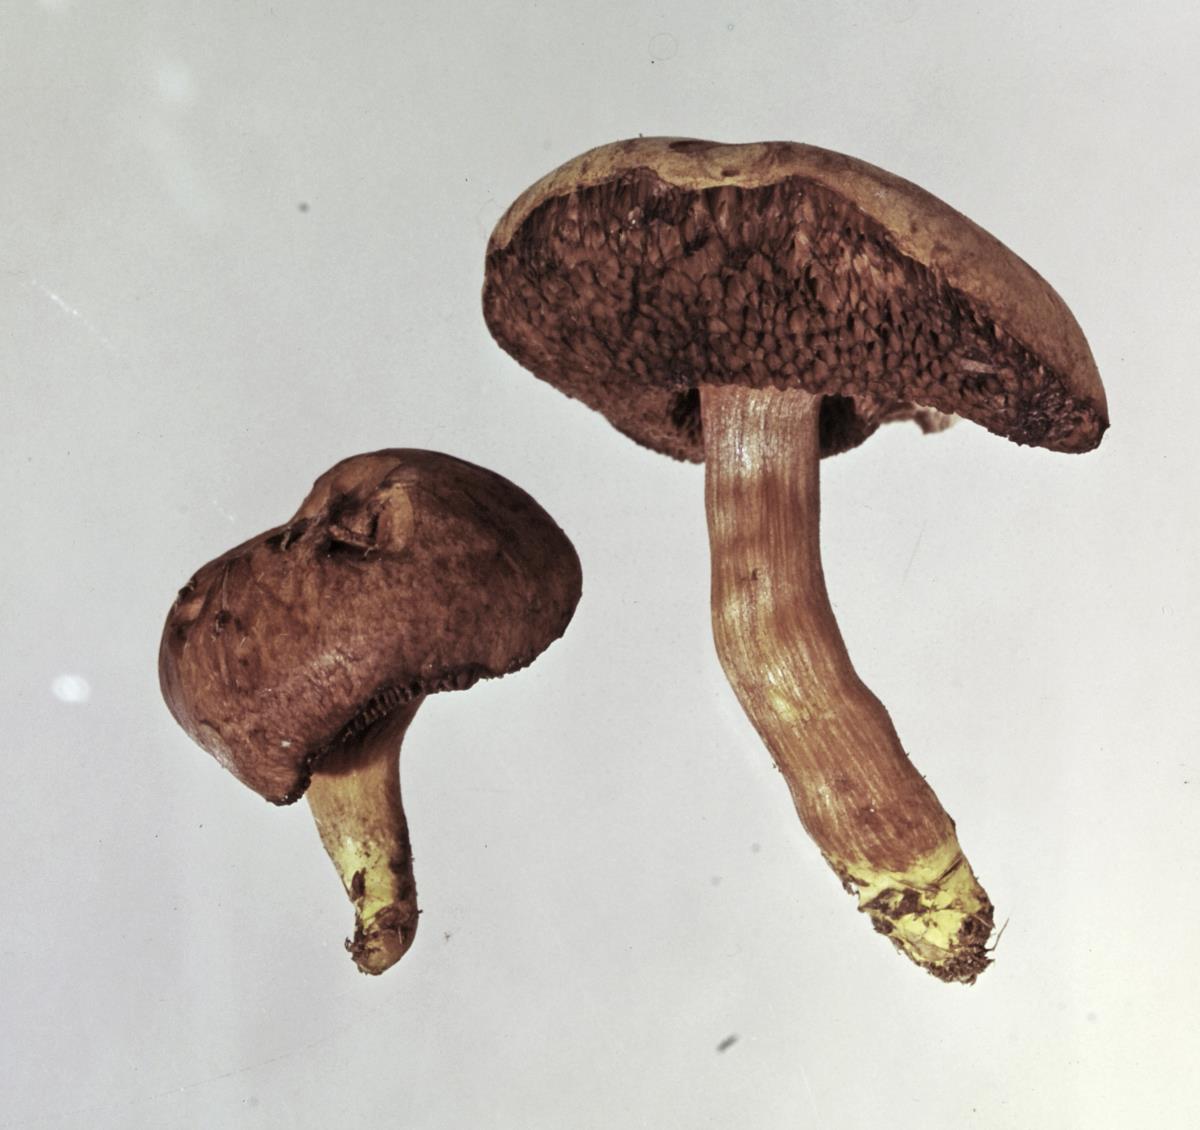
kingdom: Fungi
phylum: Basidiomycota
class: Agaricomycetes
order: Boletales
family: Boletaceae
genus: Chalciporus
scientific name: Chalciporus piperatus
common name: Peppery bolete
